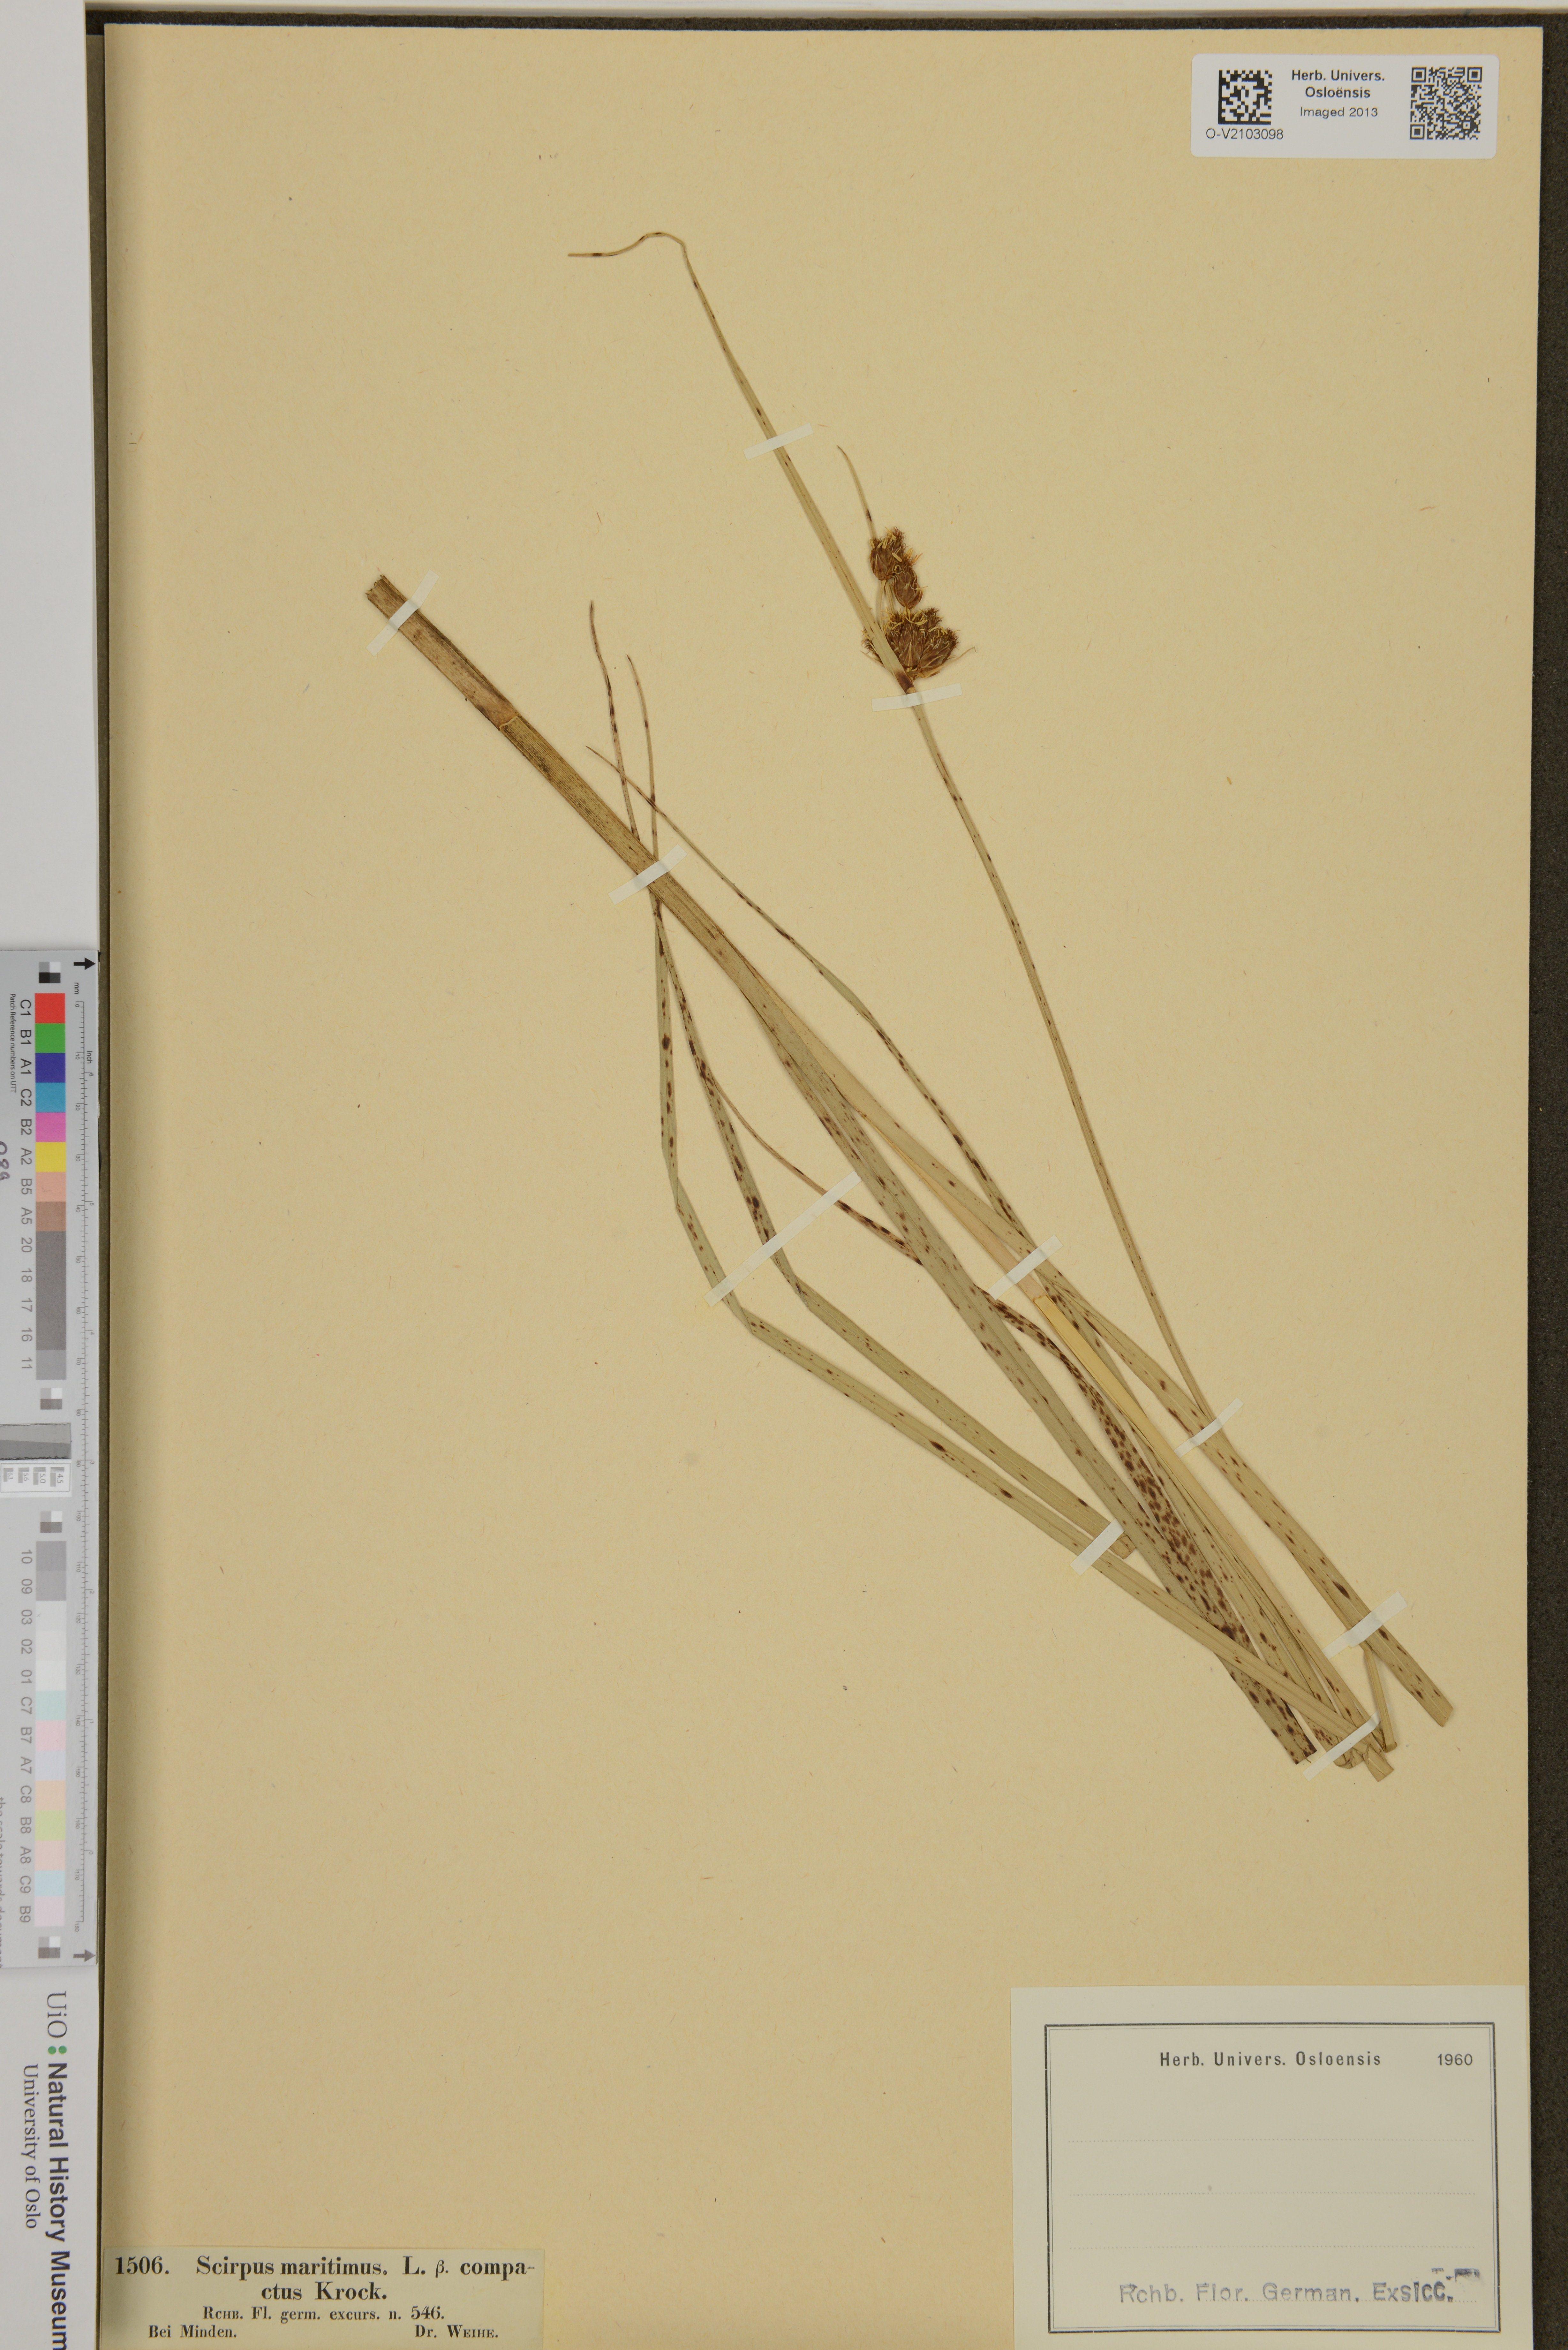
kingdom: Plantae
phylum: Tracheophyta
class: Liliopsida
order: Poales
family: Cyperaceae
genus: Bolboschoenus
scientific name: Bolboschoenus maritimus
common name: Sea club-rush
